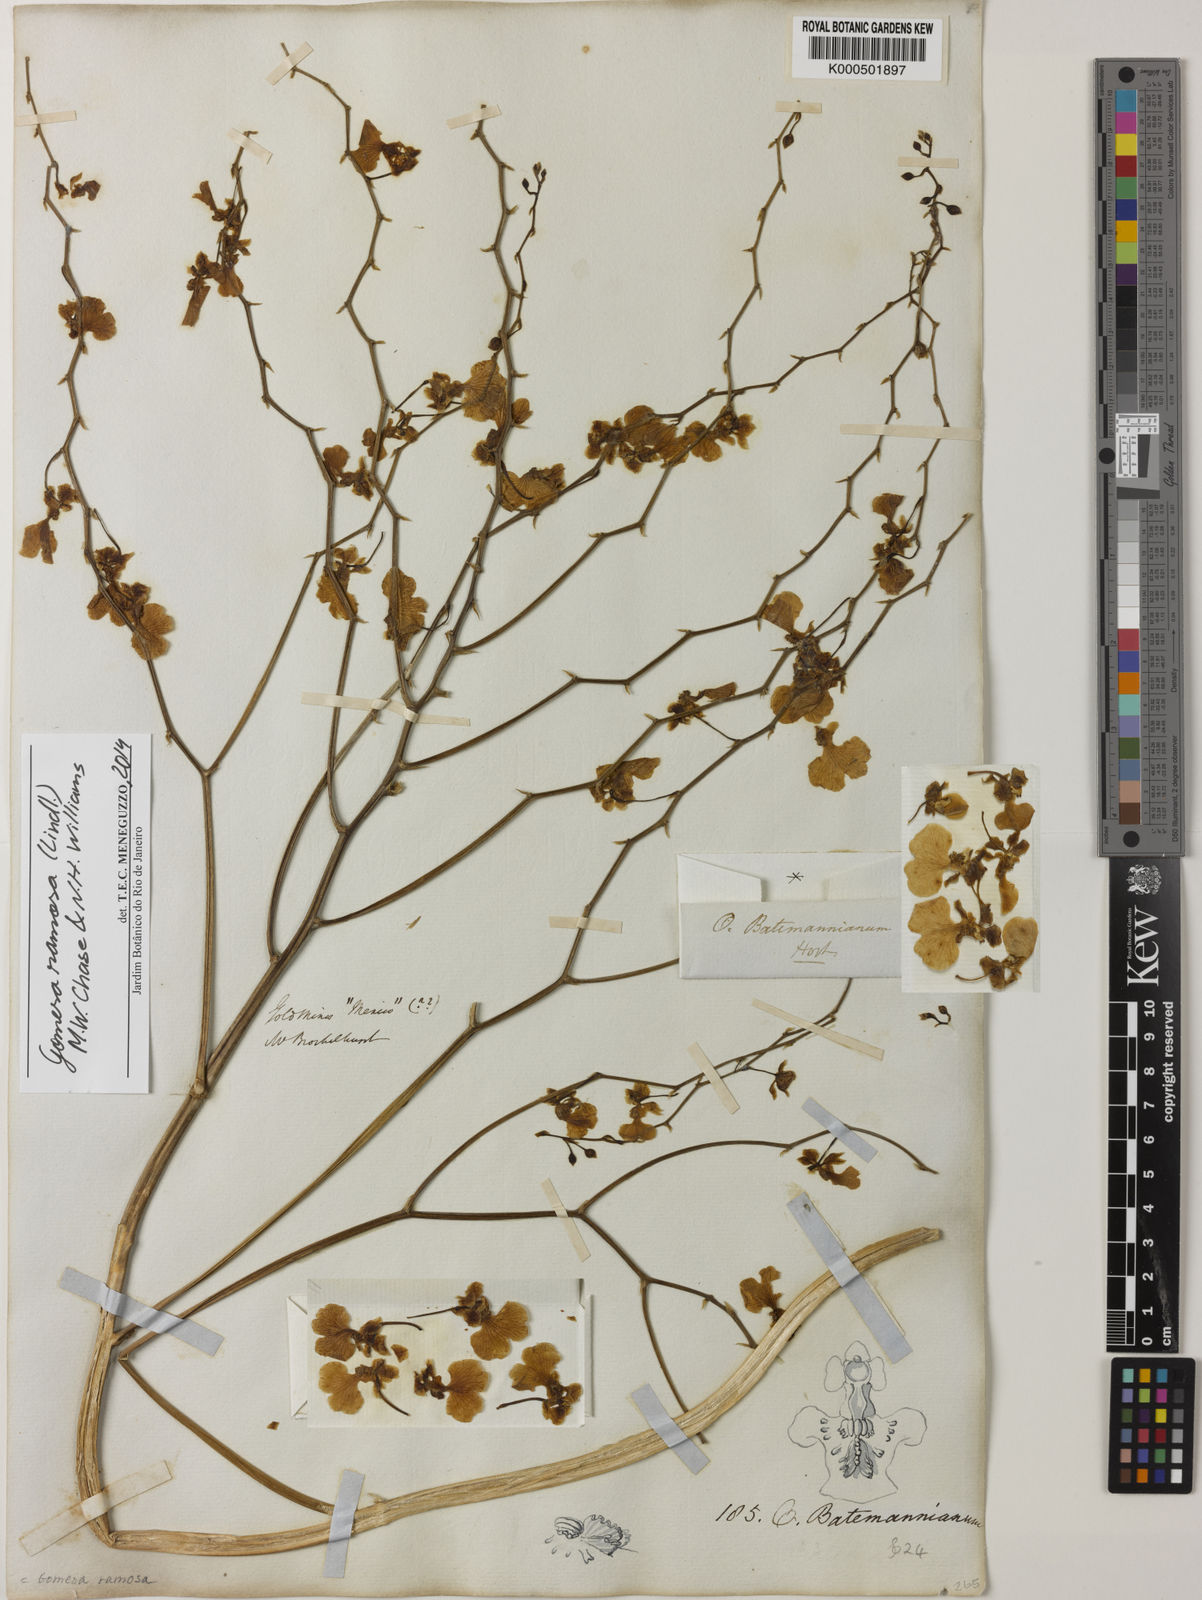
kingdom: Plantae
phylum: Tracheophyta
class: Liliopsida
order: Asparagales
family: Orchidaceae
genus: Gomesa
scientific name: Gomesa ramosa
